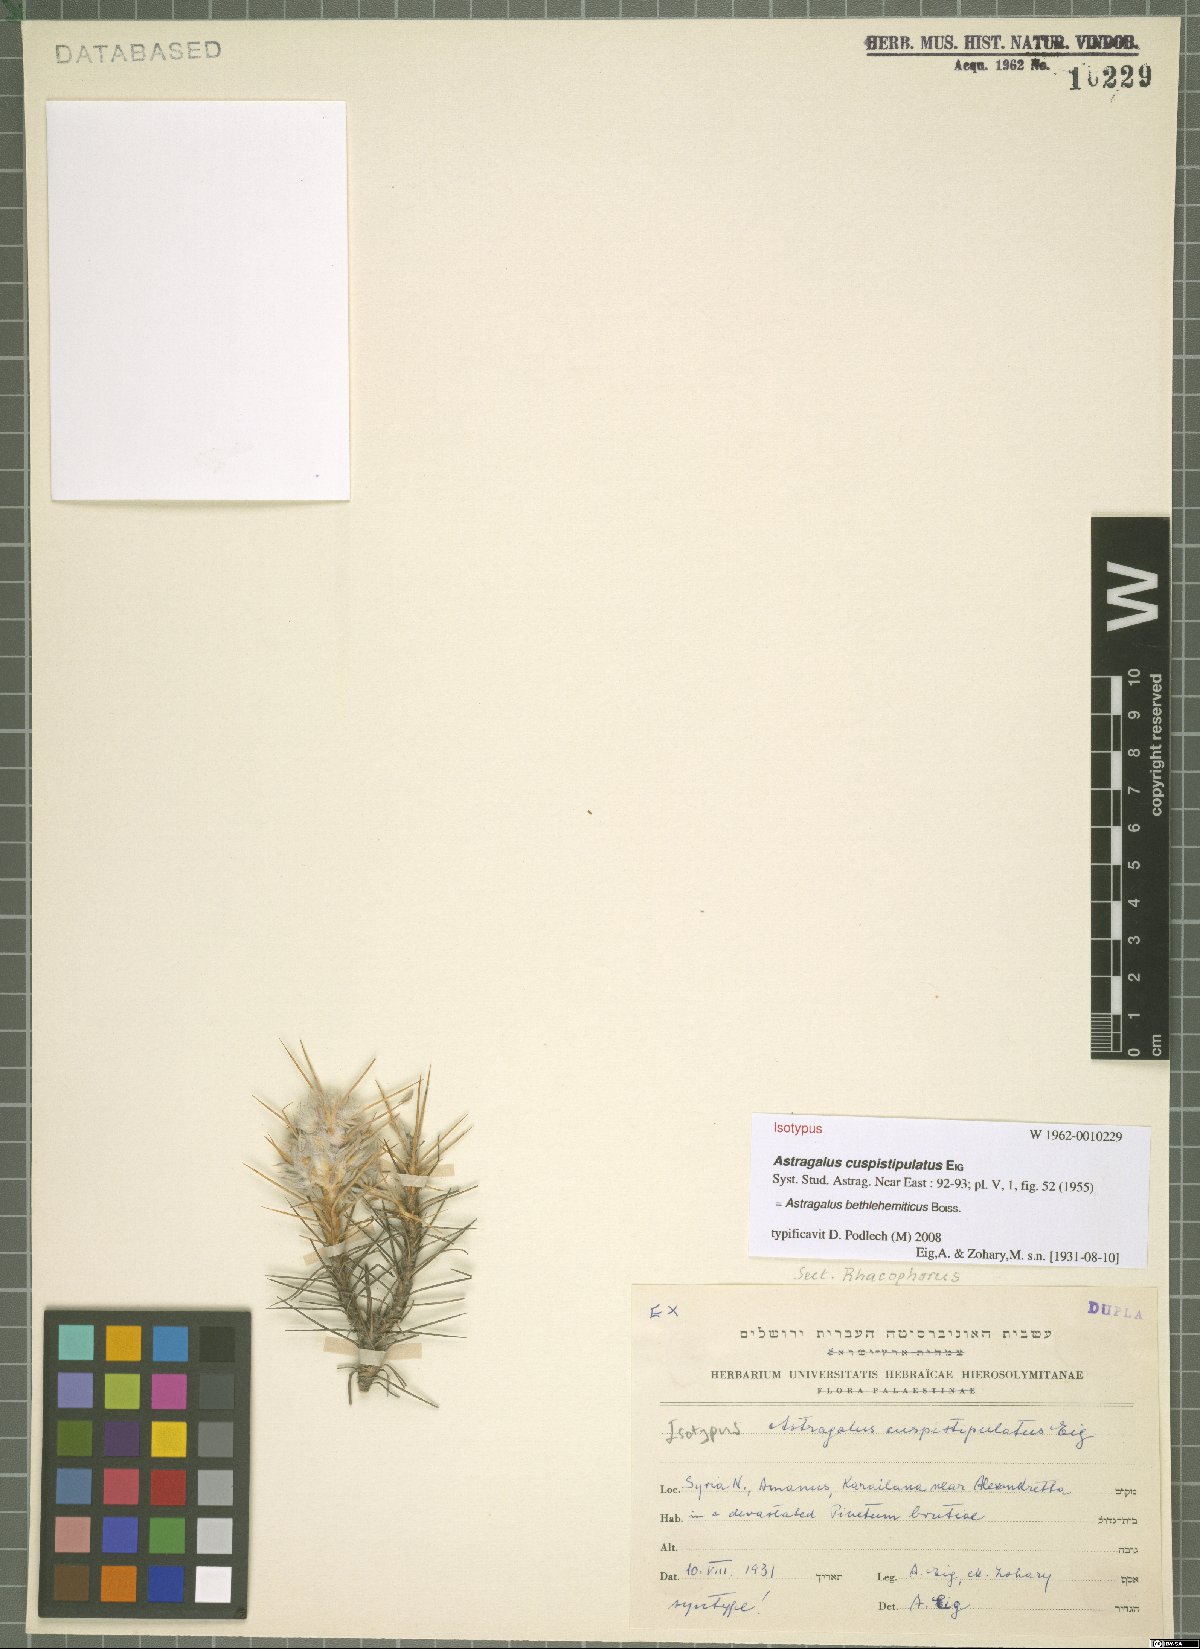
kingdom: Plantae
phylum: Tracheophyta
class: Magnoliopsida
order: Fabales
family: Fabaceae
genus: Astragalus
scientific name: Astragalus bethlehemiticus
